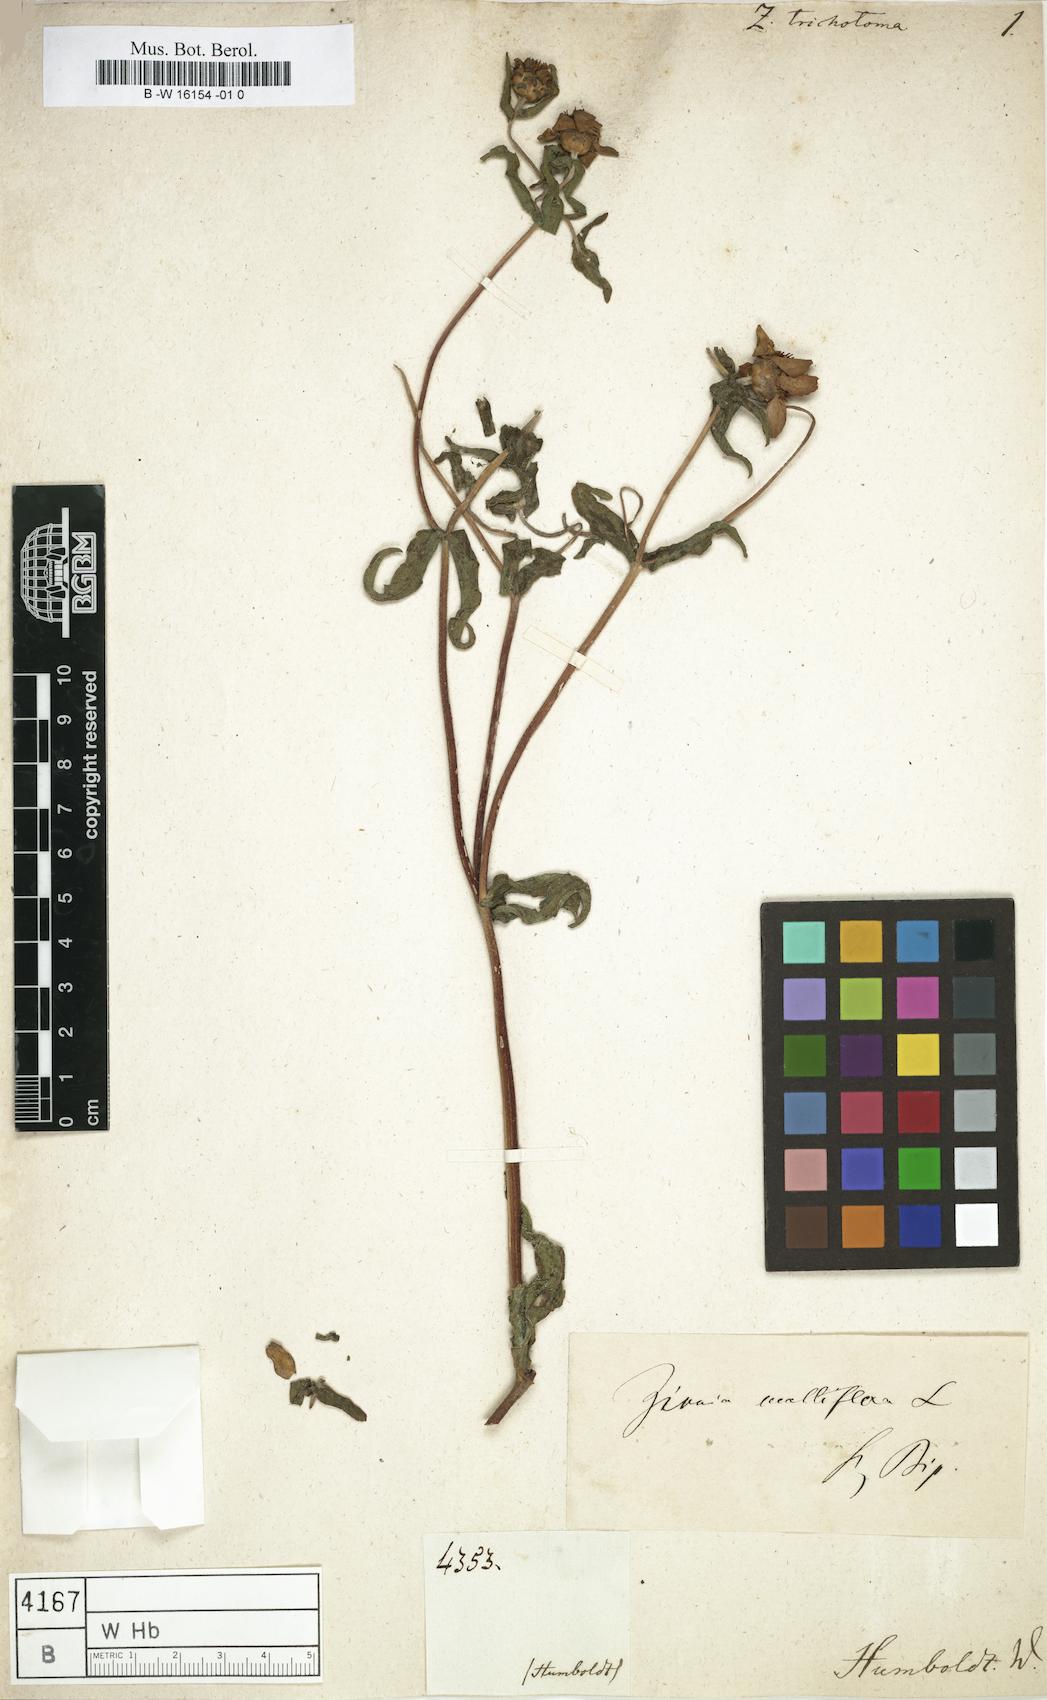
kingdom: Plantae
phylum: Tracheophyta
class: Magnoliopsida
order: Asterales
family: Asteraceae
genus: Zinnia
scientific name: Zinnia
